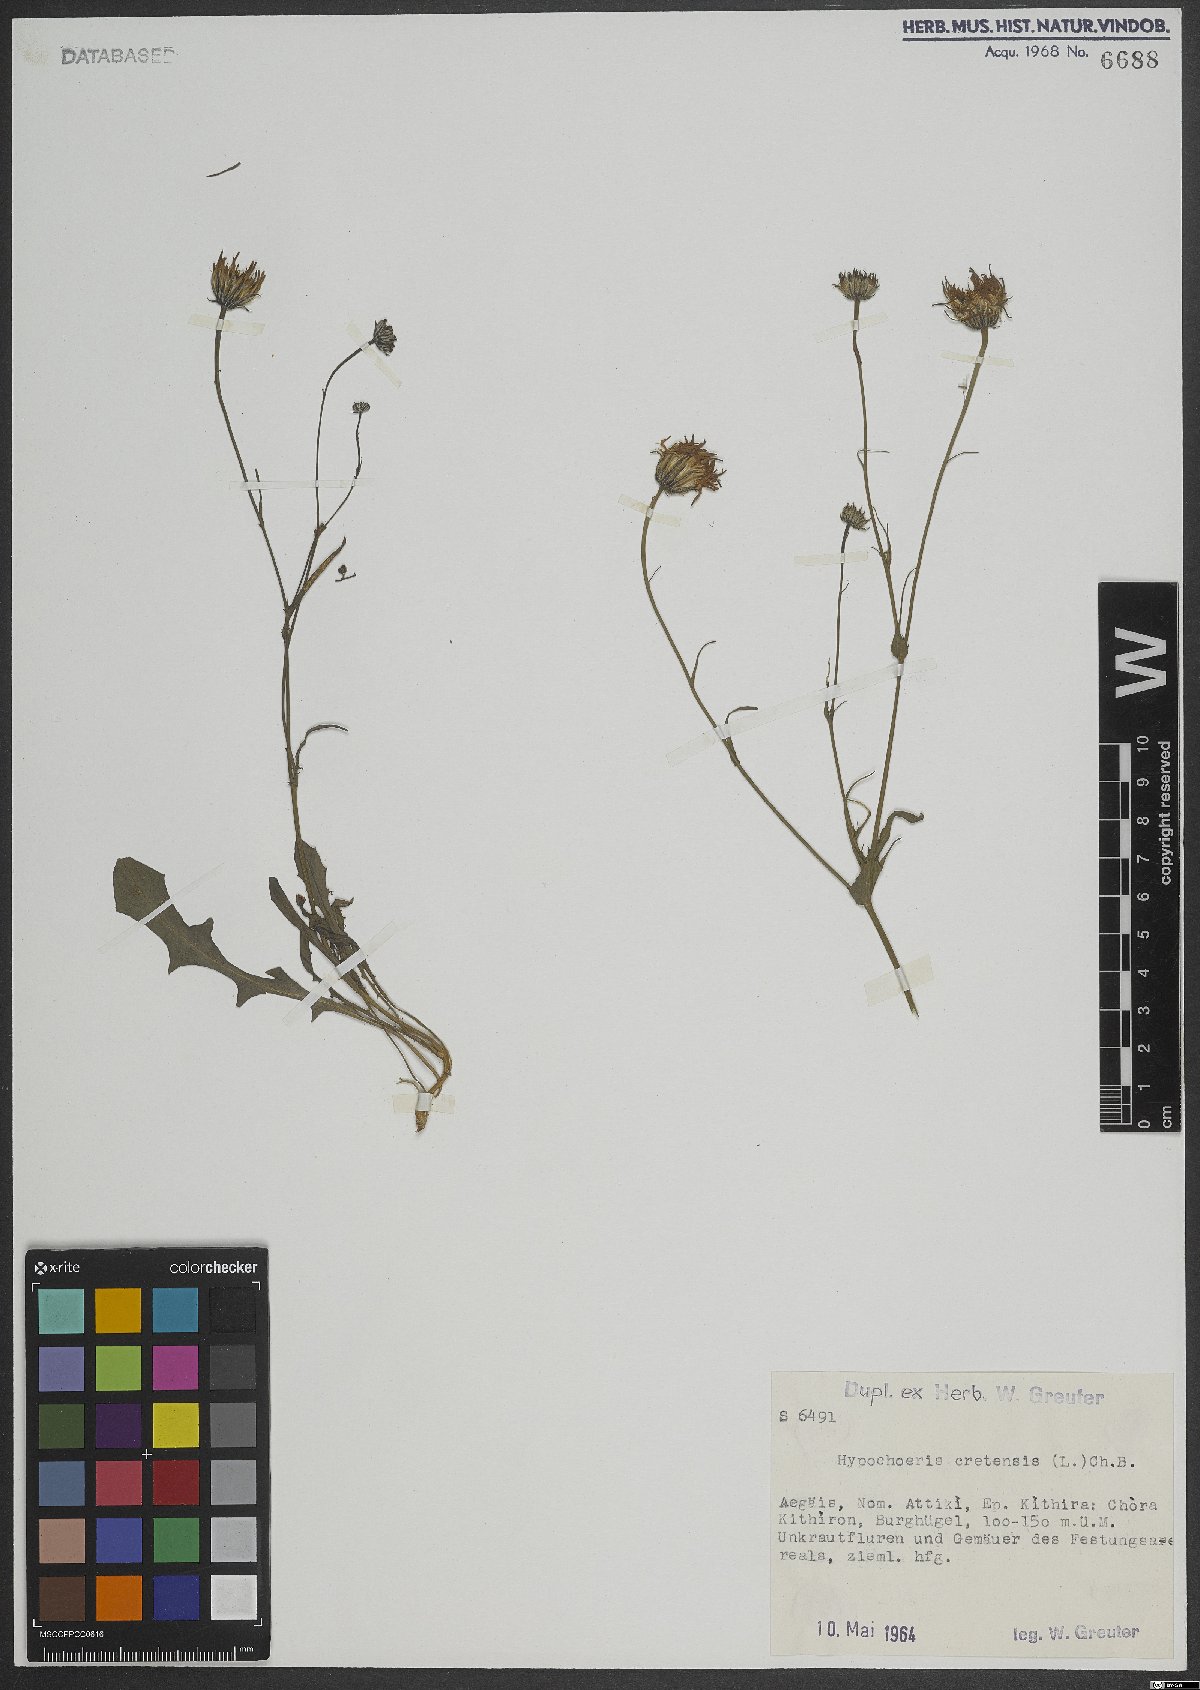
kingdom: Plantae
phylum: Tracheophyta
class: Magnoliopsida
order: Asterales
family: Asteraceae
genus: Hypochaeris
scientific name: Hypochaeris cretensis
